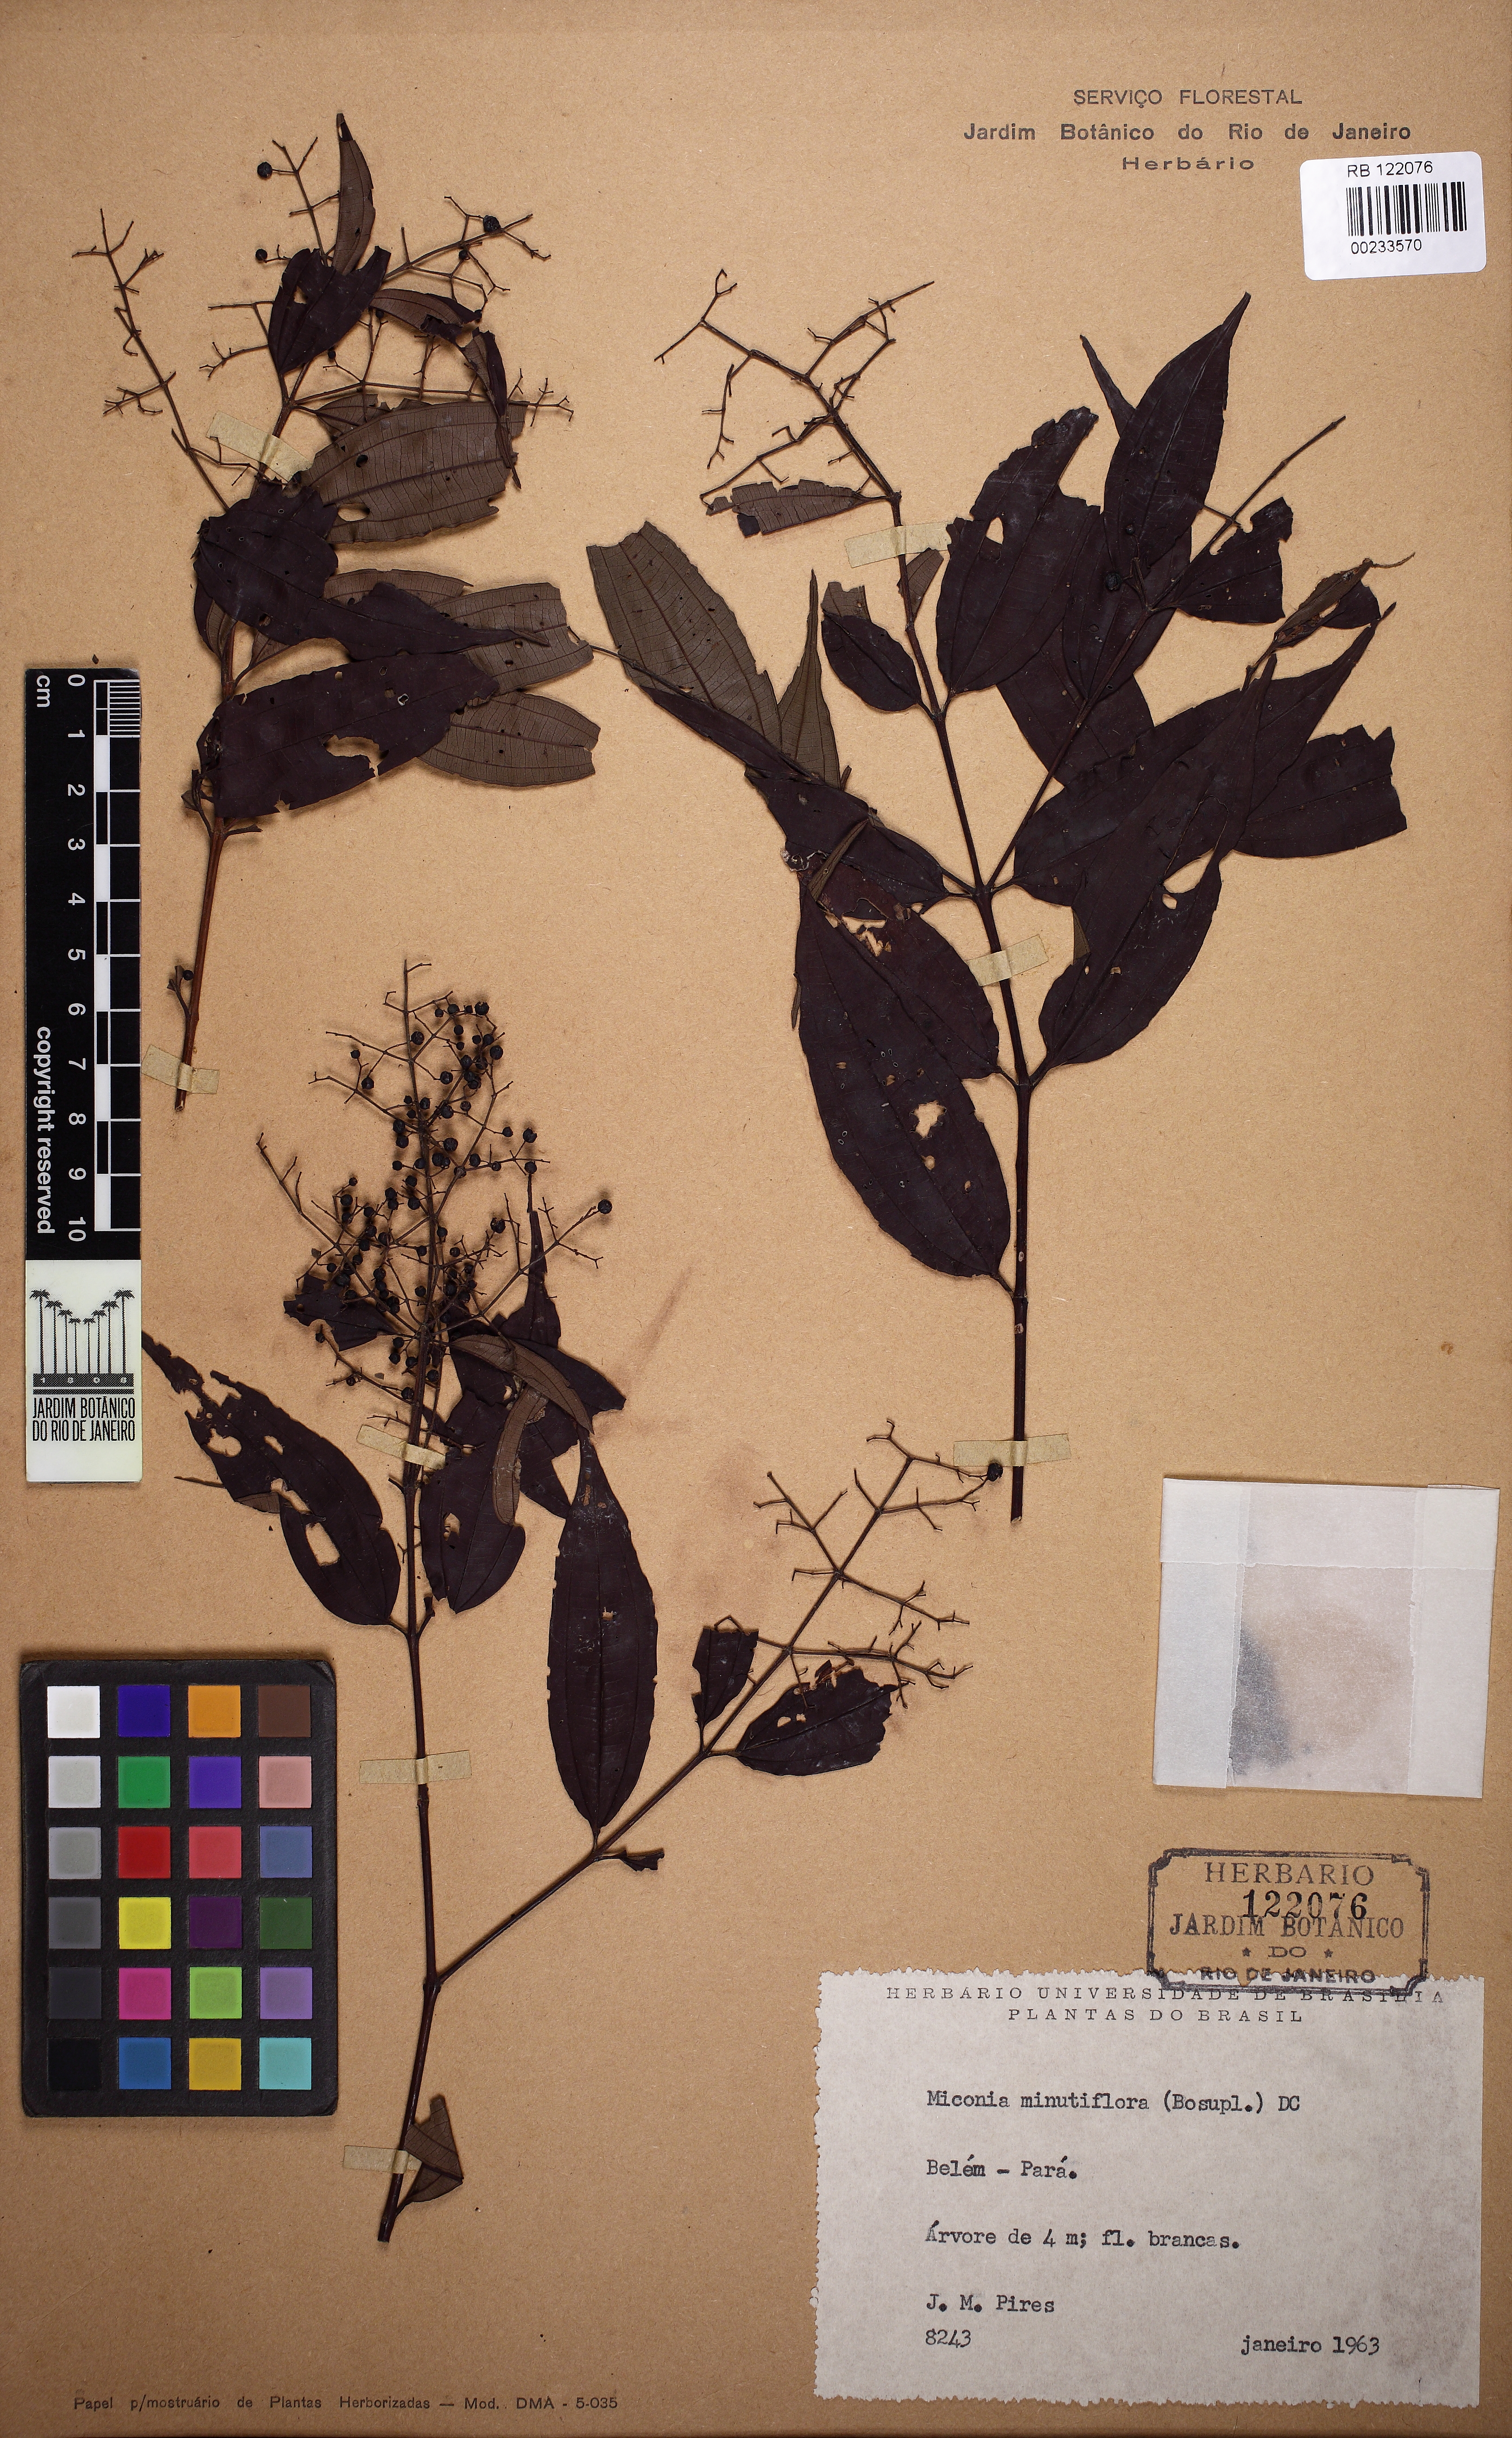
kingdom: Plantae
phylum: Tracheophyta
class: Magnoliopsida
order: Myrtales
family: Melastomataceae
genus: Miconia
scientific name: Miconia minutiflora
